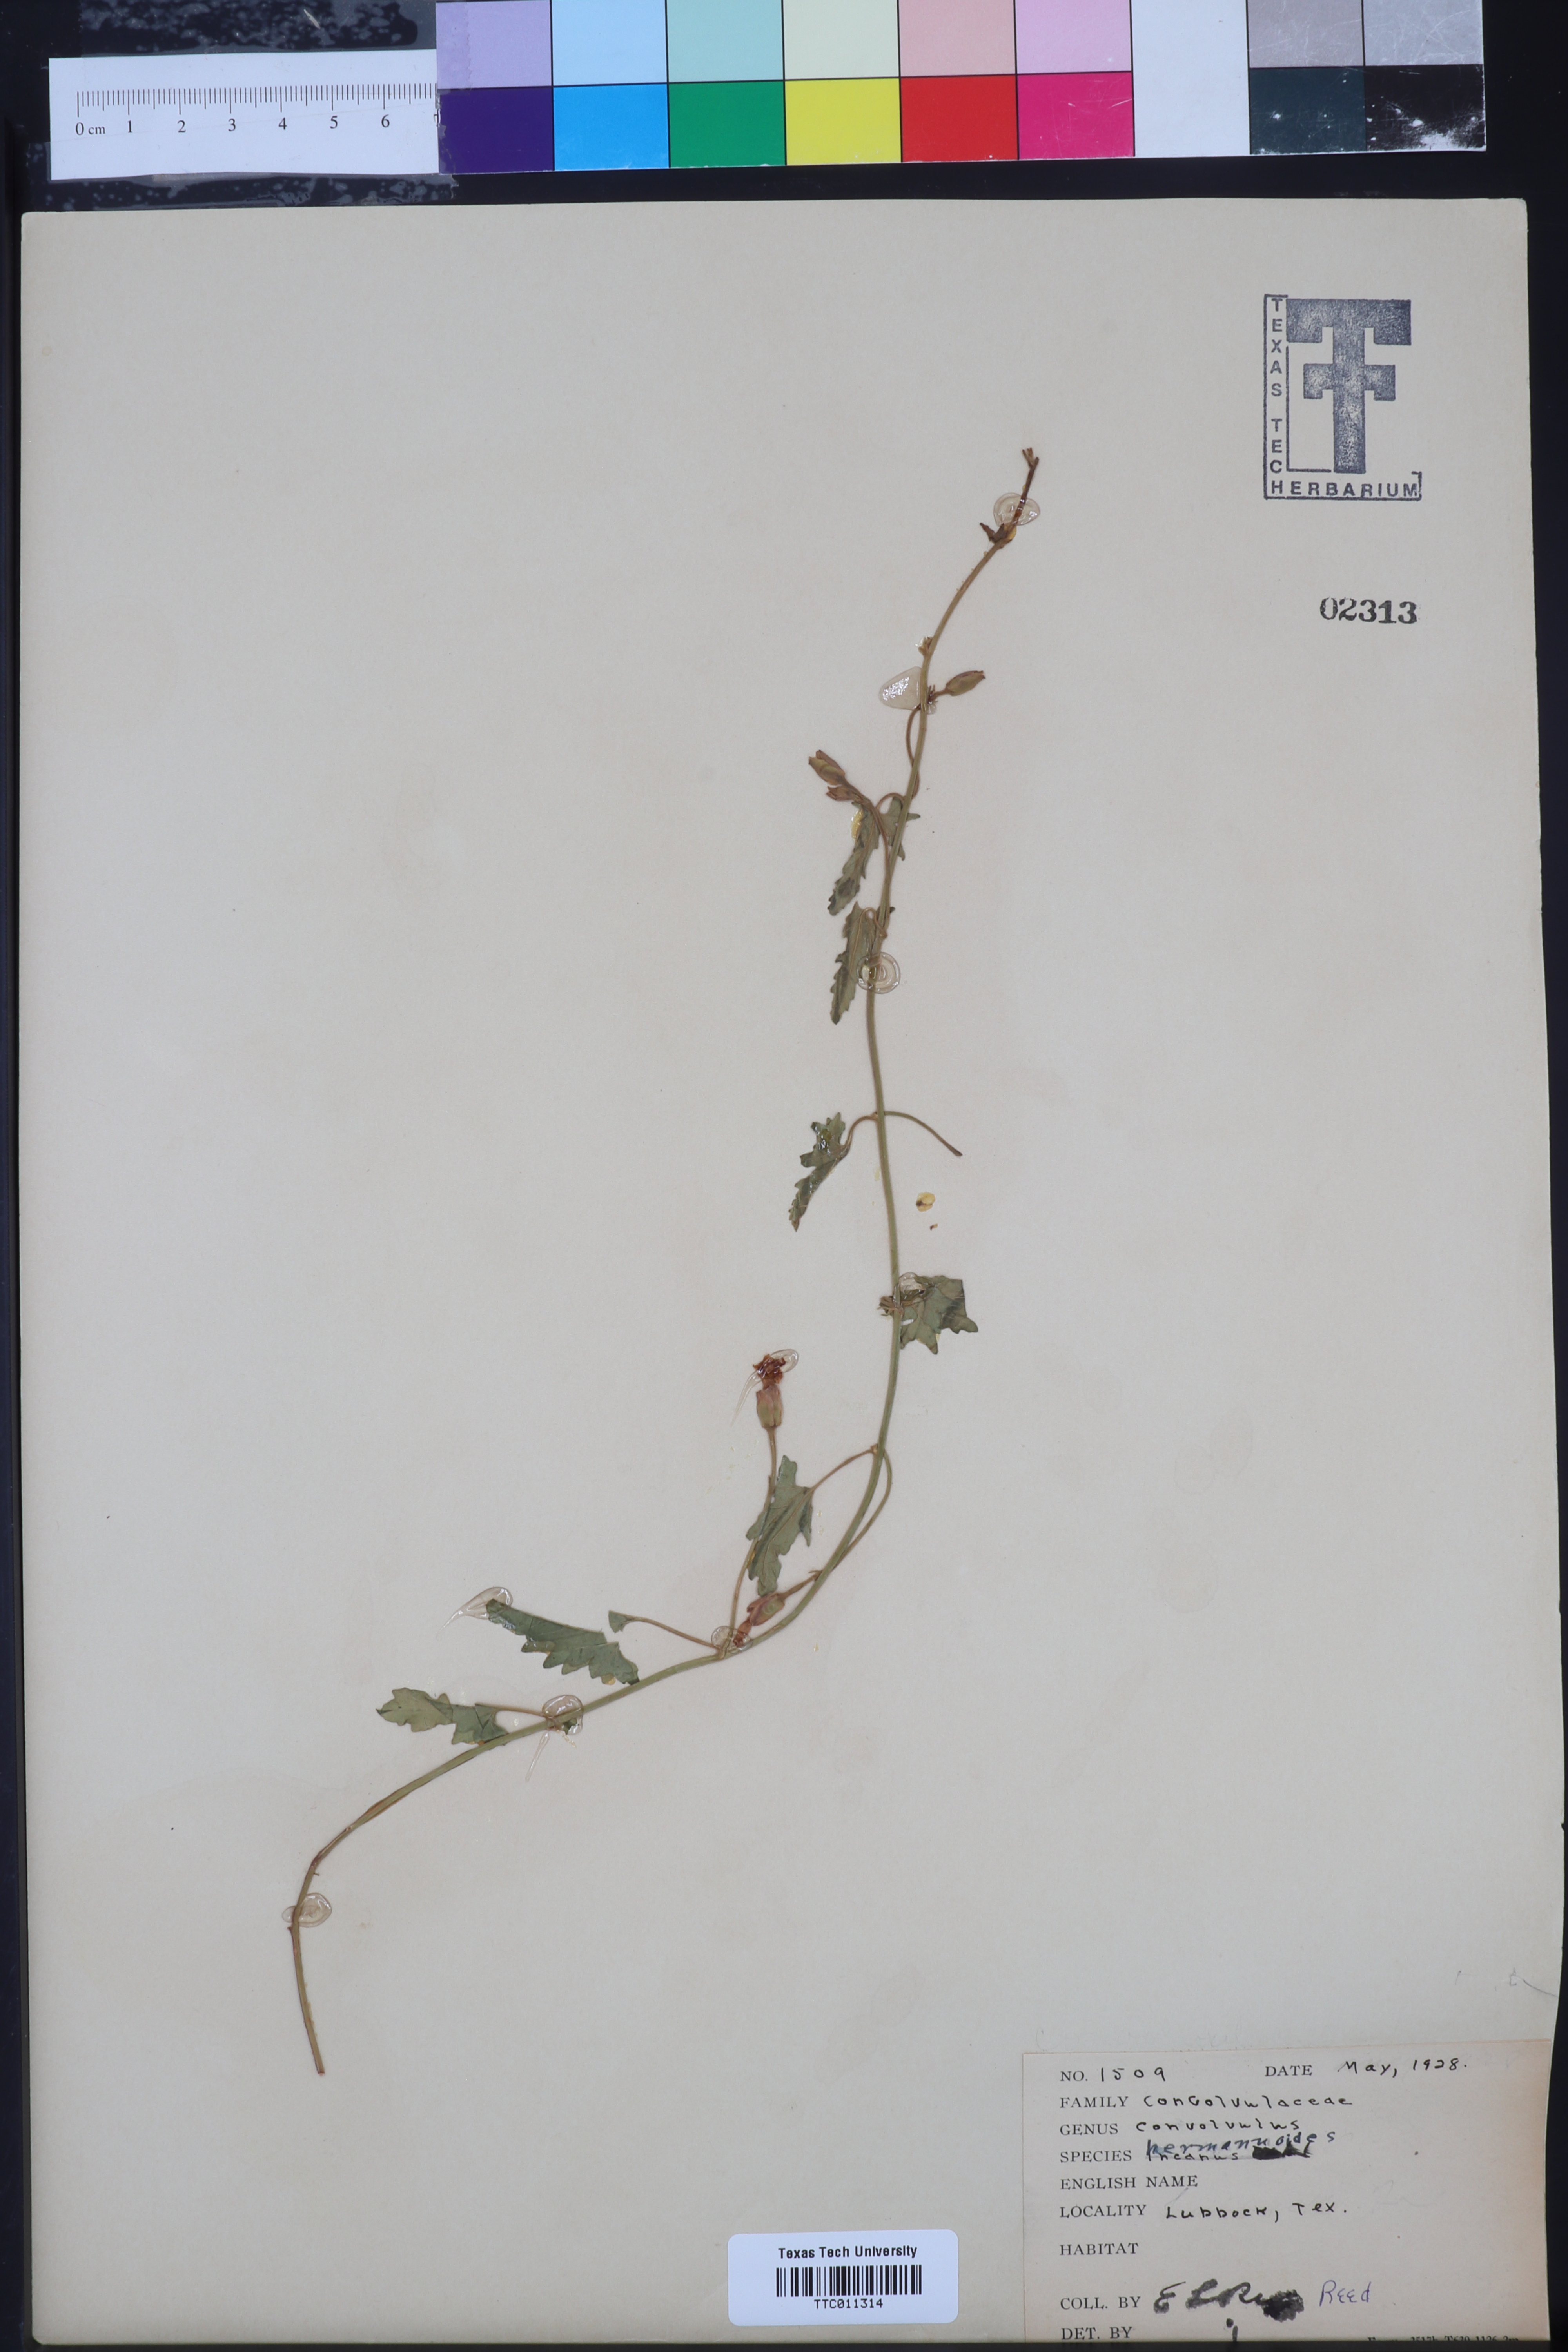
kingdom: Plantae
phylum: Tracheophyta
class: Magnoliopsida
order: Solanales
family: Convolvulaceae
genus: Convolvulus
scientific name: Convolvulus equitans
